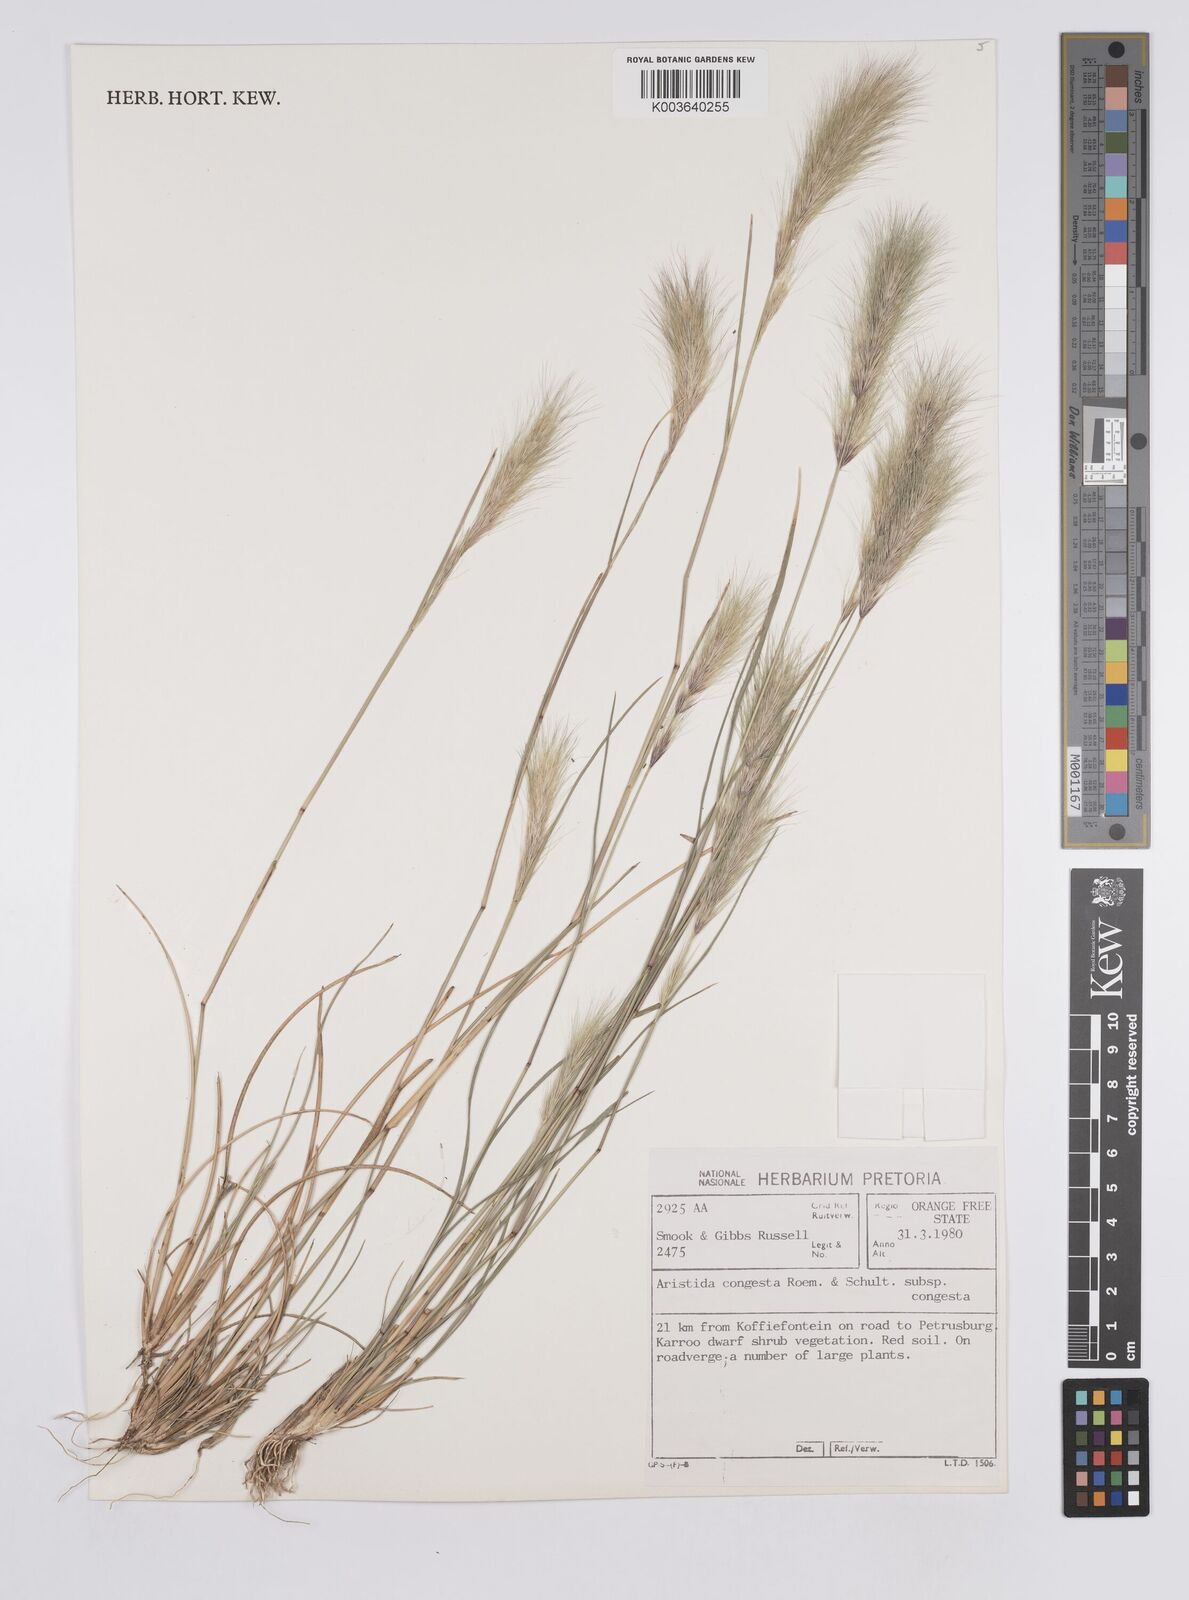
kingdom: Plantae
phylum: Tracheophyta
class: Liliopsida
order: Poales
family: Poaceae
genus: Aristida
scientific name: Aristida congesta
